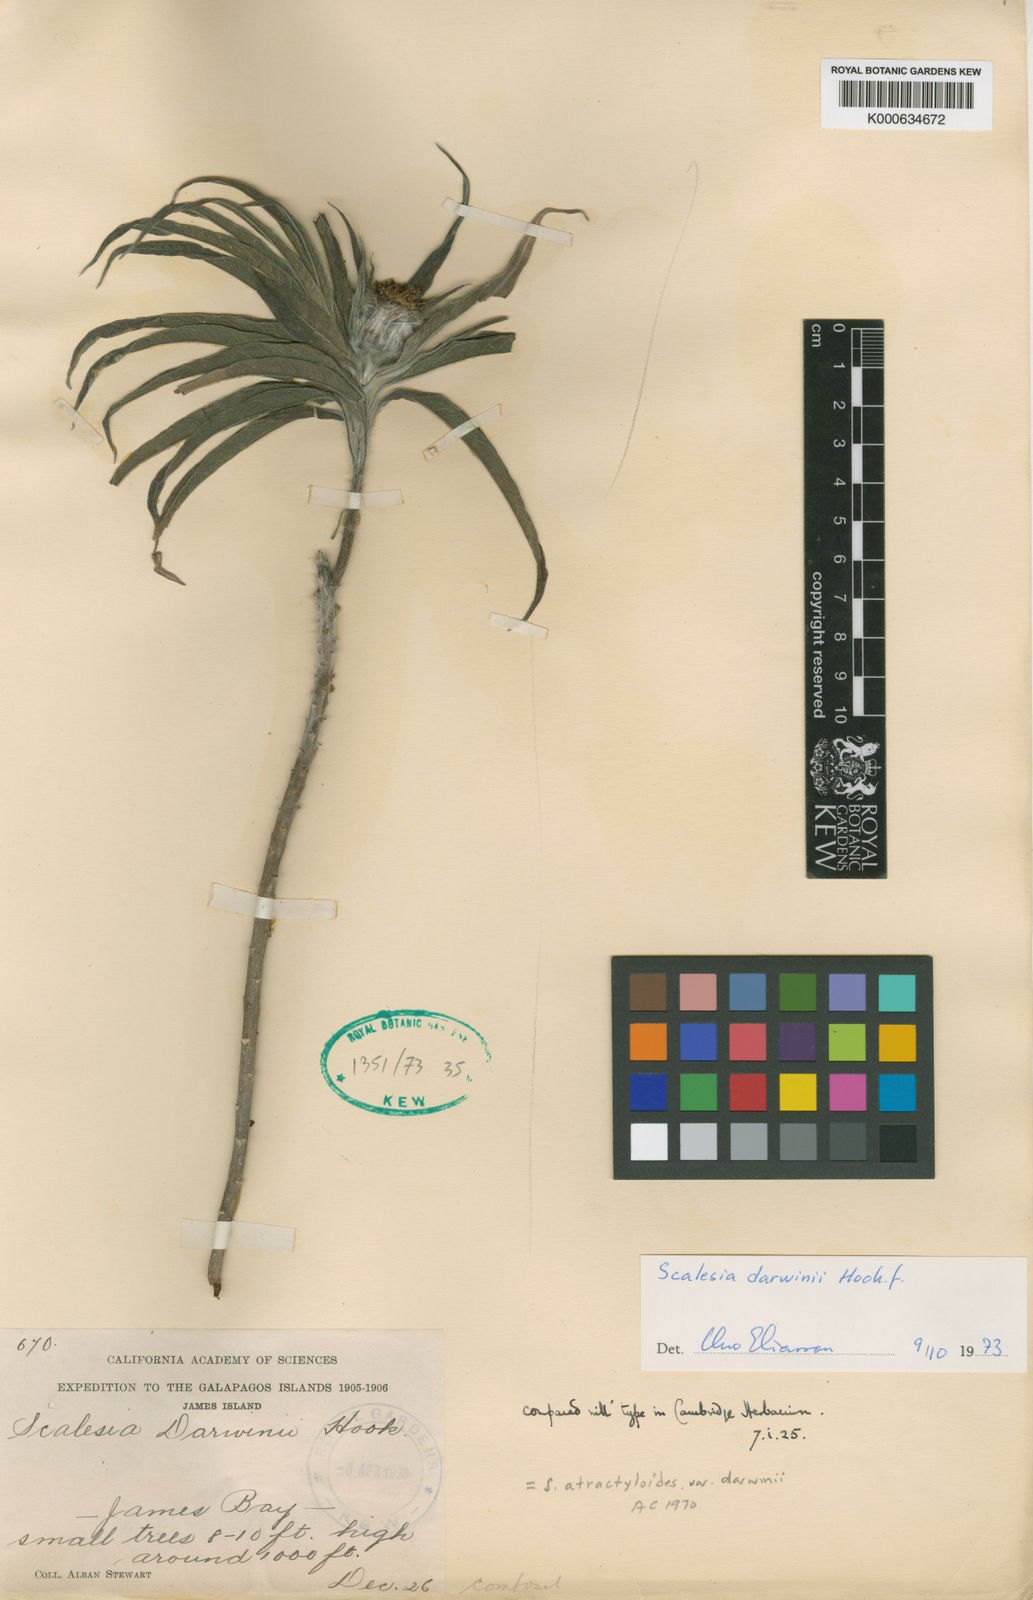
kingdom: Plantae
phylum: Tracheophyta
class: Magnoliopsida
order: Asterales
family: Asteraceae
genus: Scalesia
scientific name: Scalesia atractyloides
